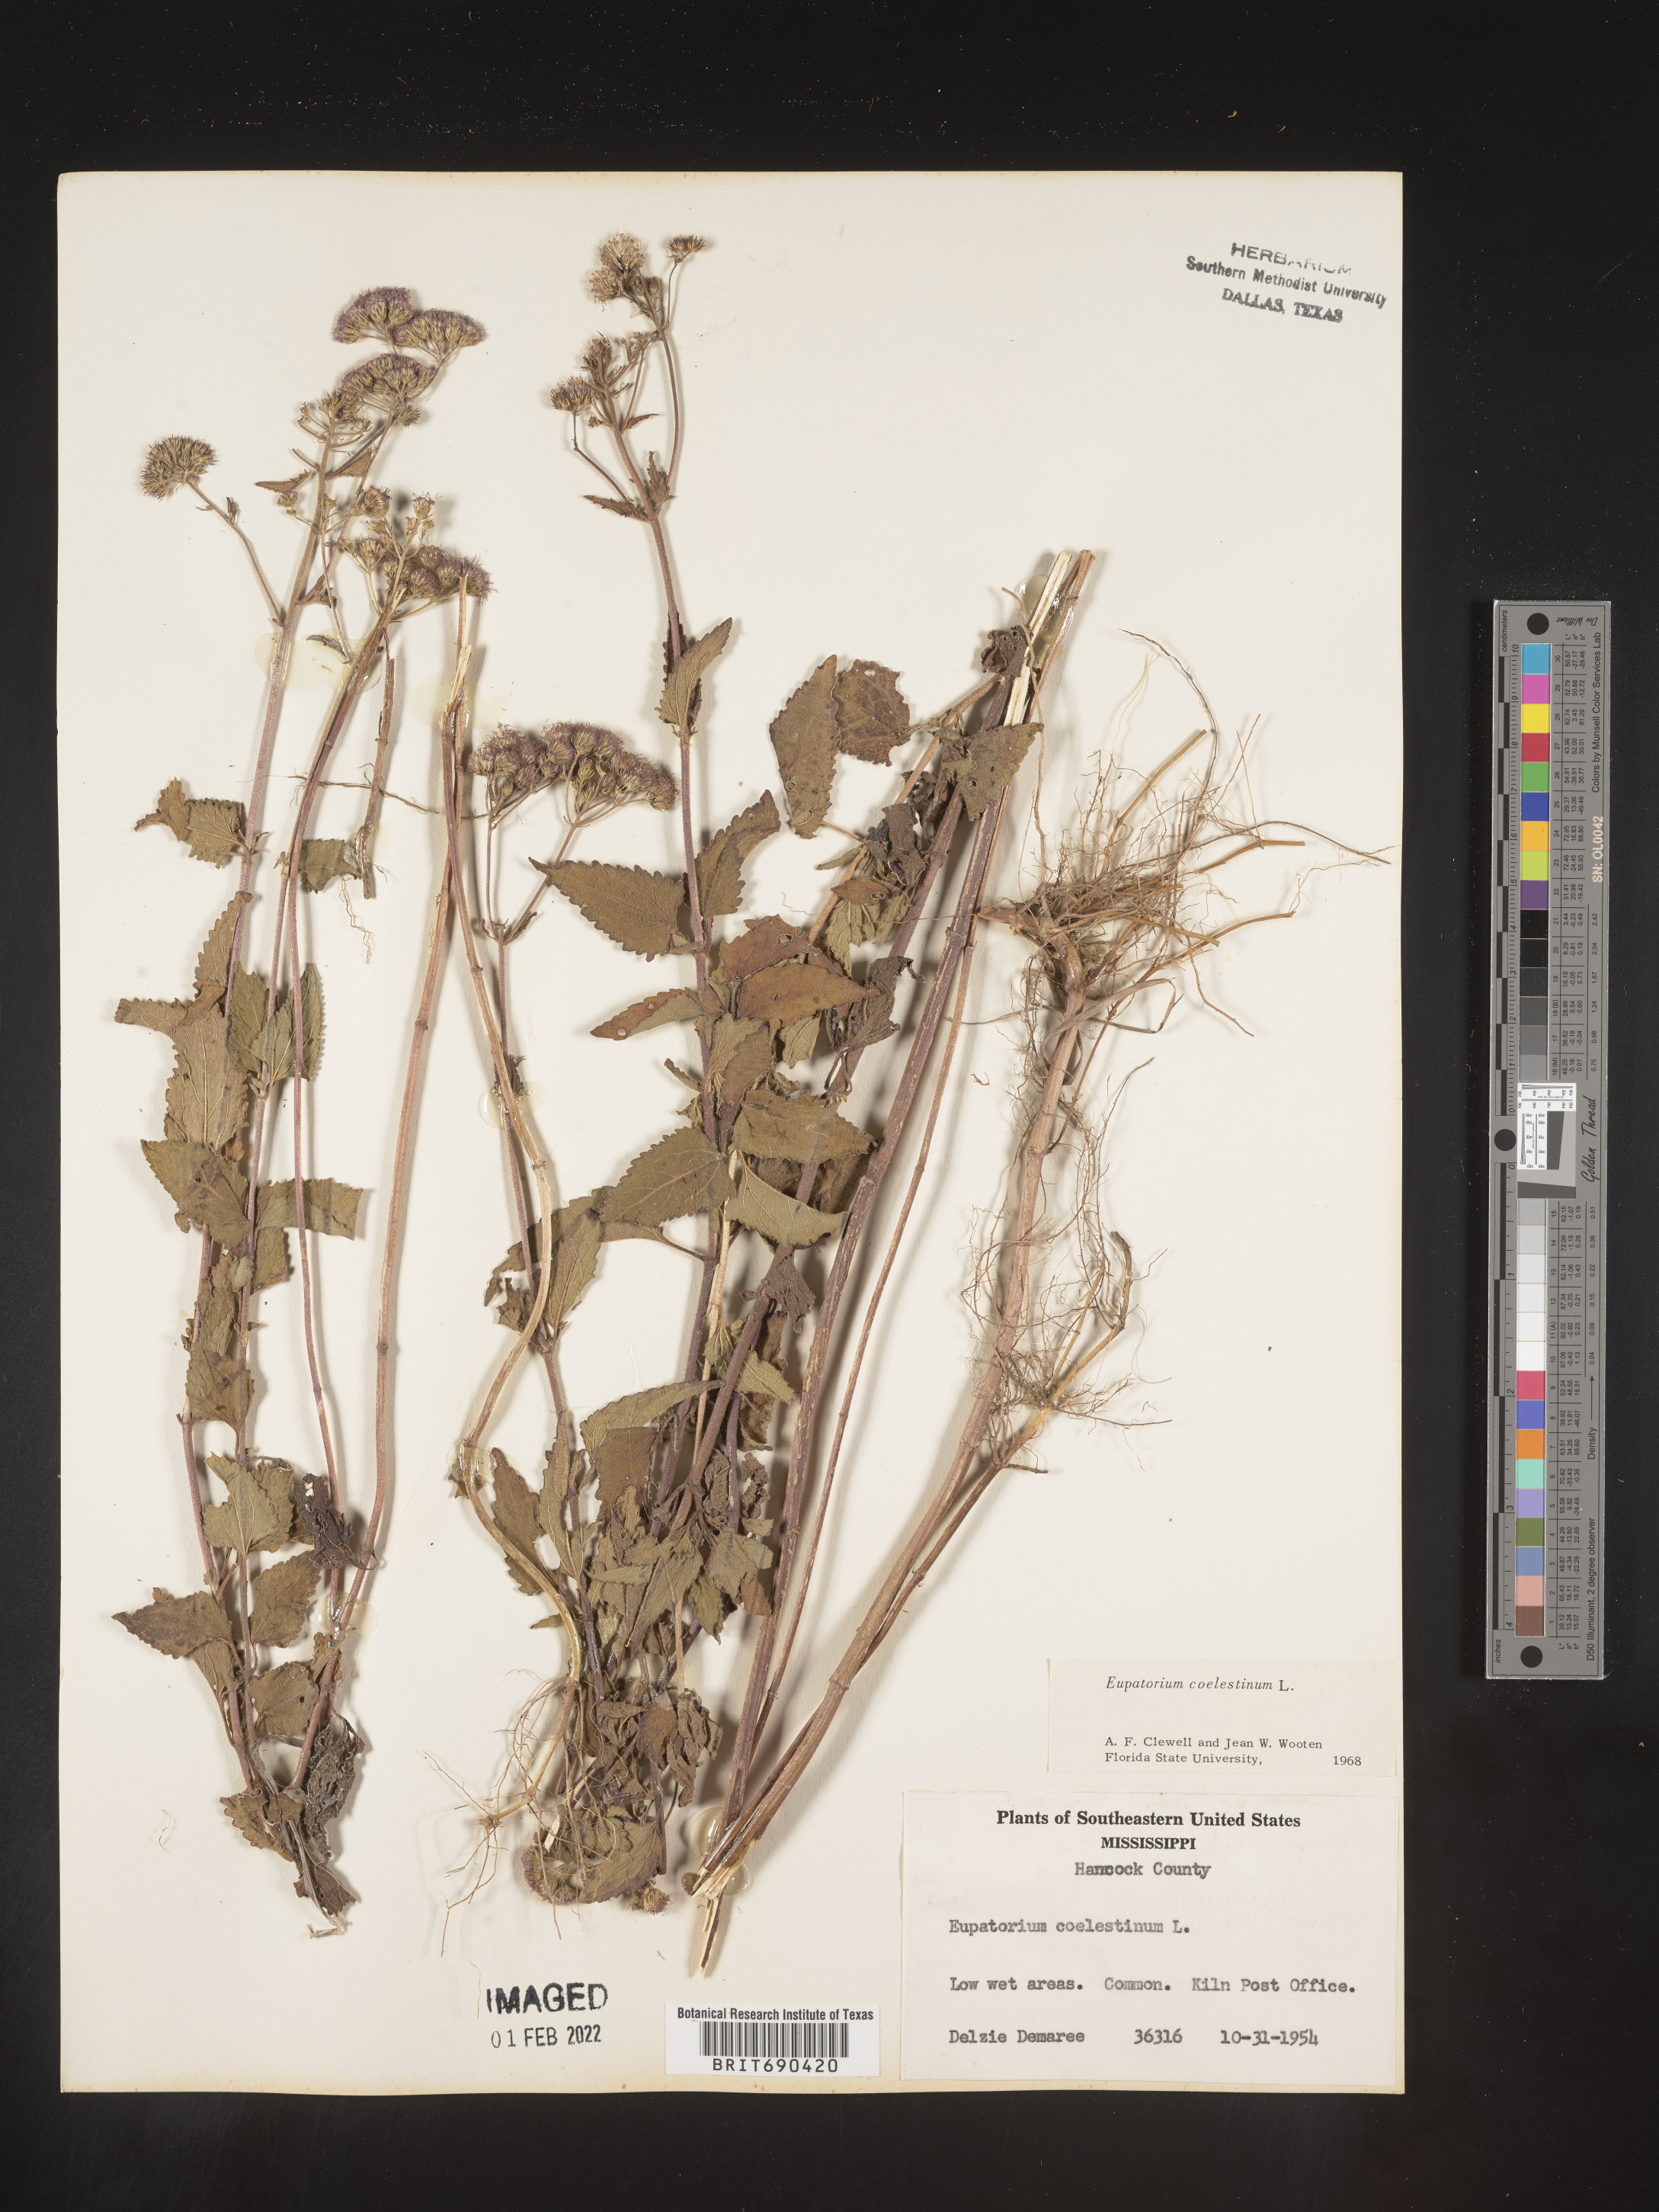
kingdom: Plantae
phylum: Tracheophyta
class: Magnoliopsida
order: Asterales
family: Asteraceae
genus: Conoclinium
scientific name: Conoclinium coelestinum
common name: Blue mistflower
